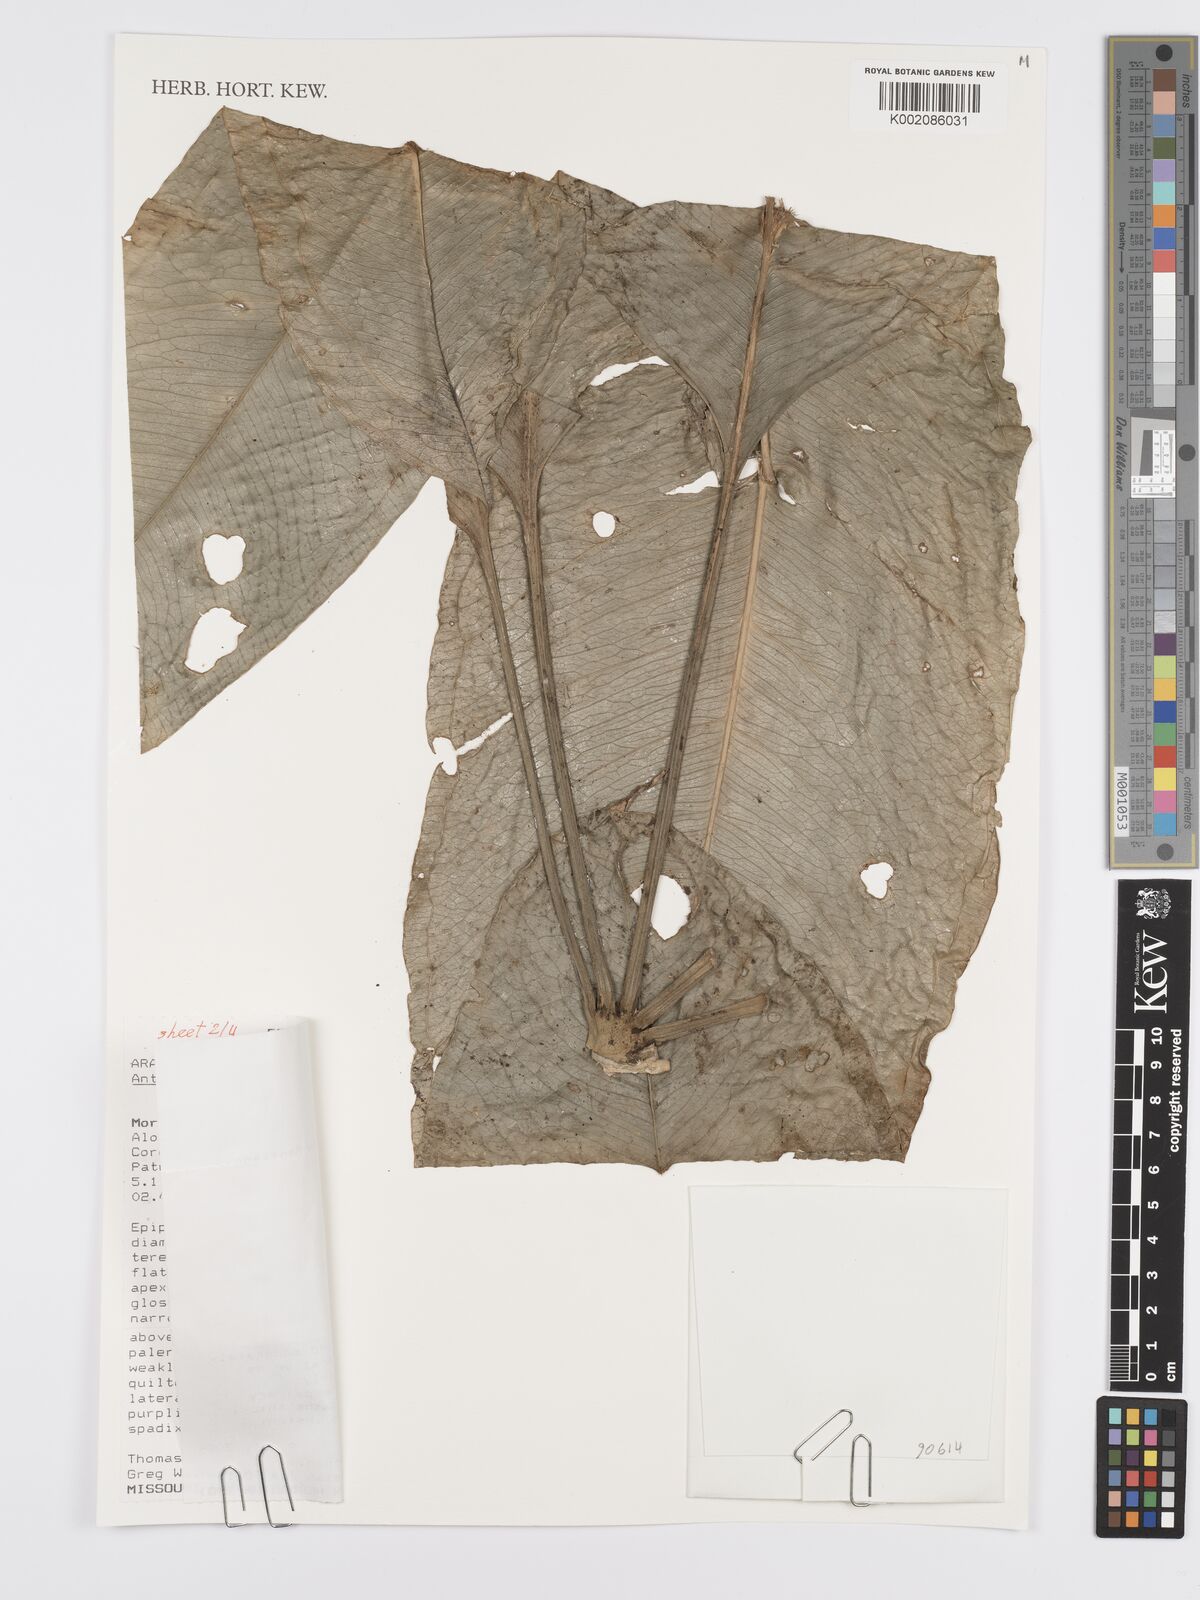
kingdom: Plantae
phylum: Tracheophyta
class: Liliopsida
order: Alismatales
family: Araceae
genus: Anthurium
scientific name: Anthurium eminens
